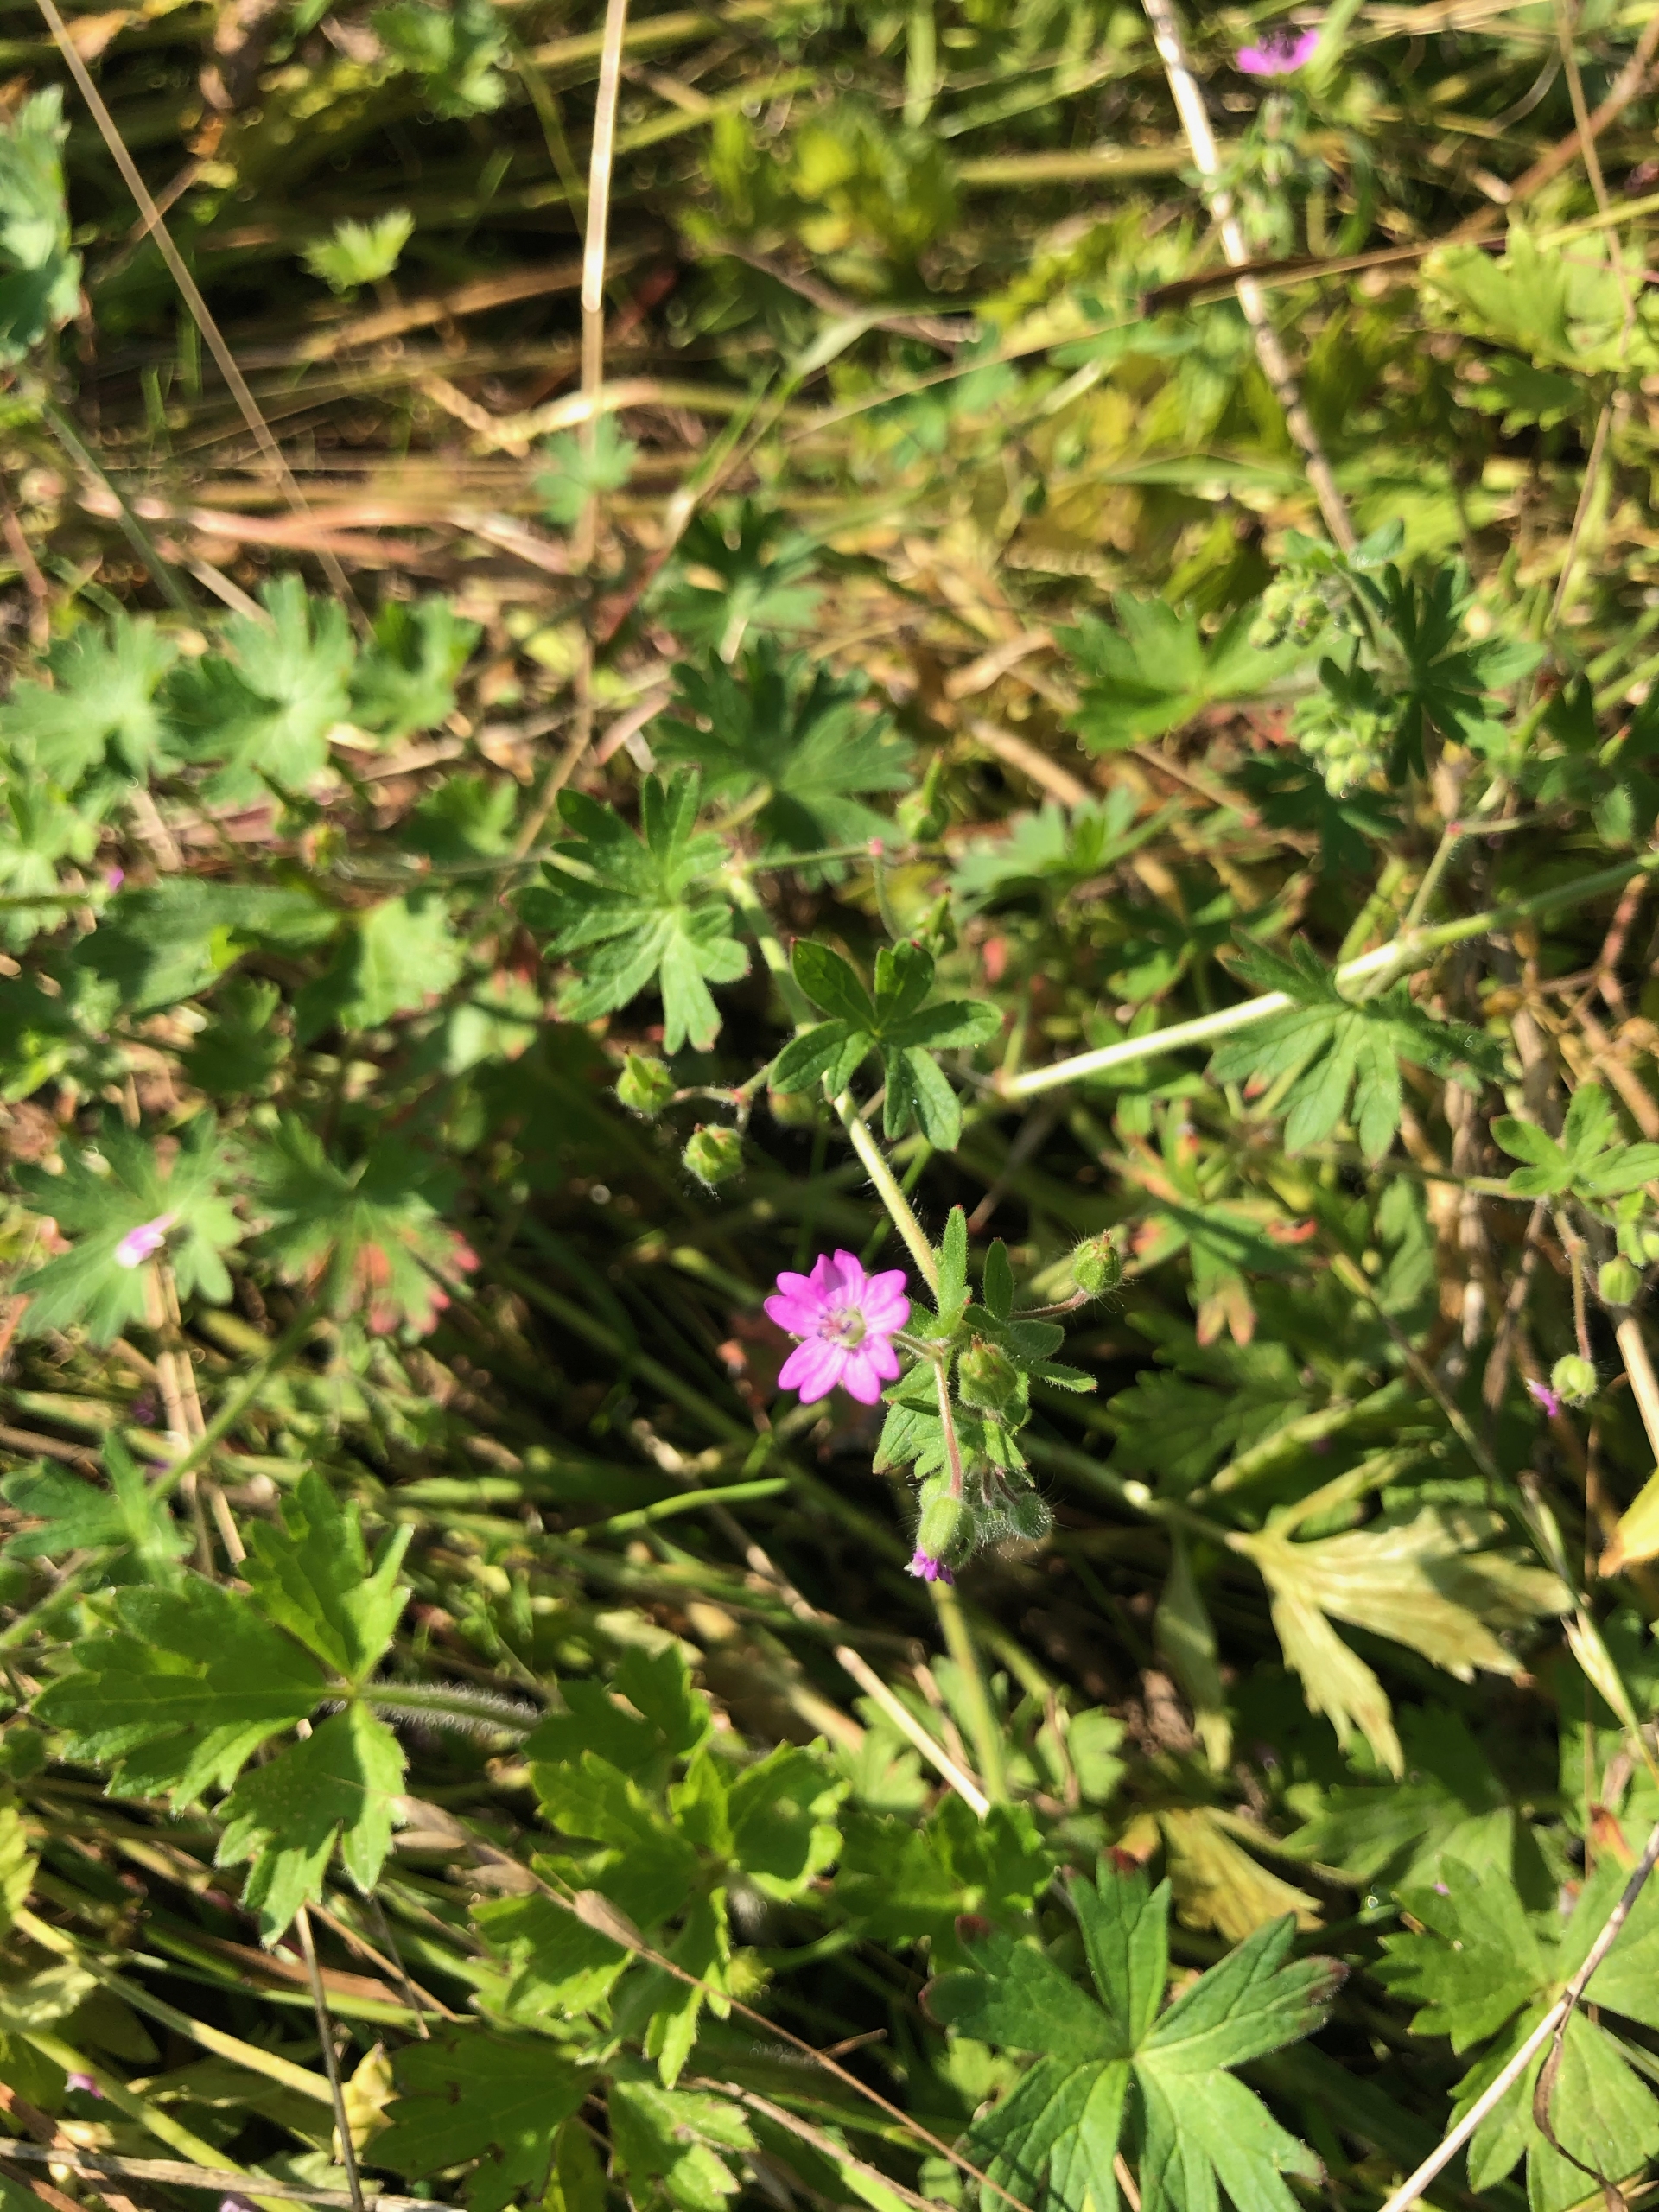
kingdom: Plantae
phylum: Tracheophyta
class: Magnoliopsida
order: Geraniales
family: Geraniaceae
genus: Geranium
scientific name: Geranium molle
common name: Blød storkenæb
